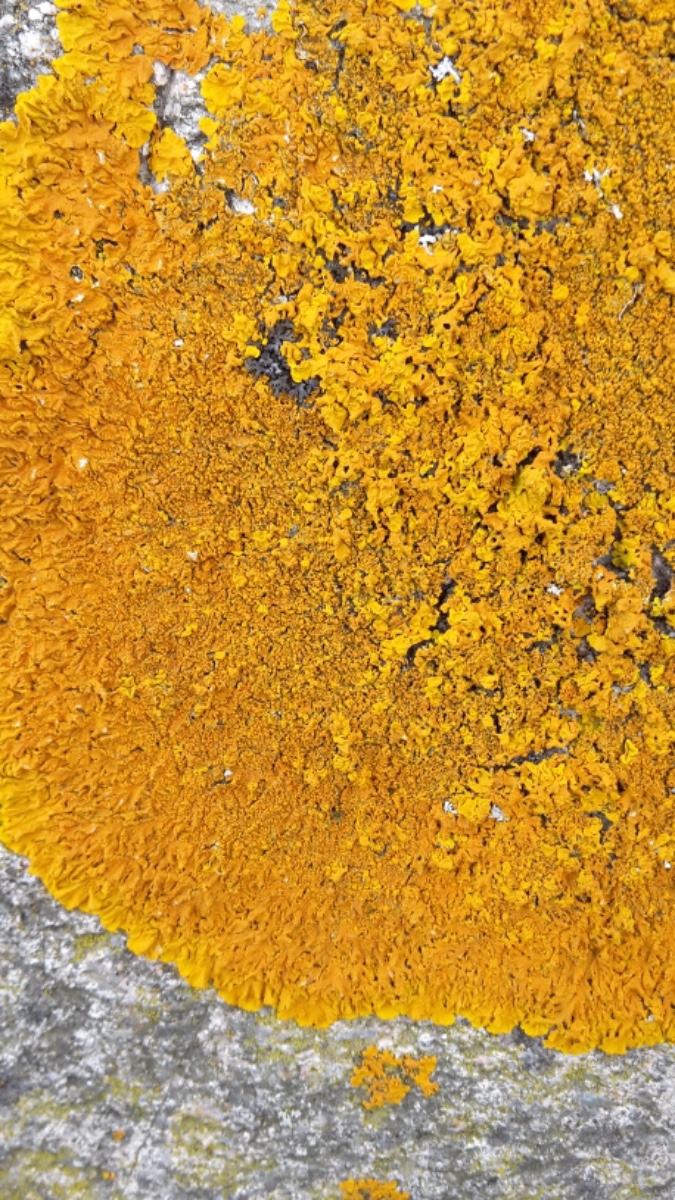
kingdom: Fungi
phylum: Ascomycota
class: Lecanoromycetes
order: Teloschistales
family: Teloschistaceae
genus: Xanthoria
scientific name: Xanthoria calcicola
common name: vortet væggelav
